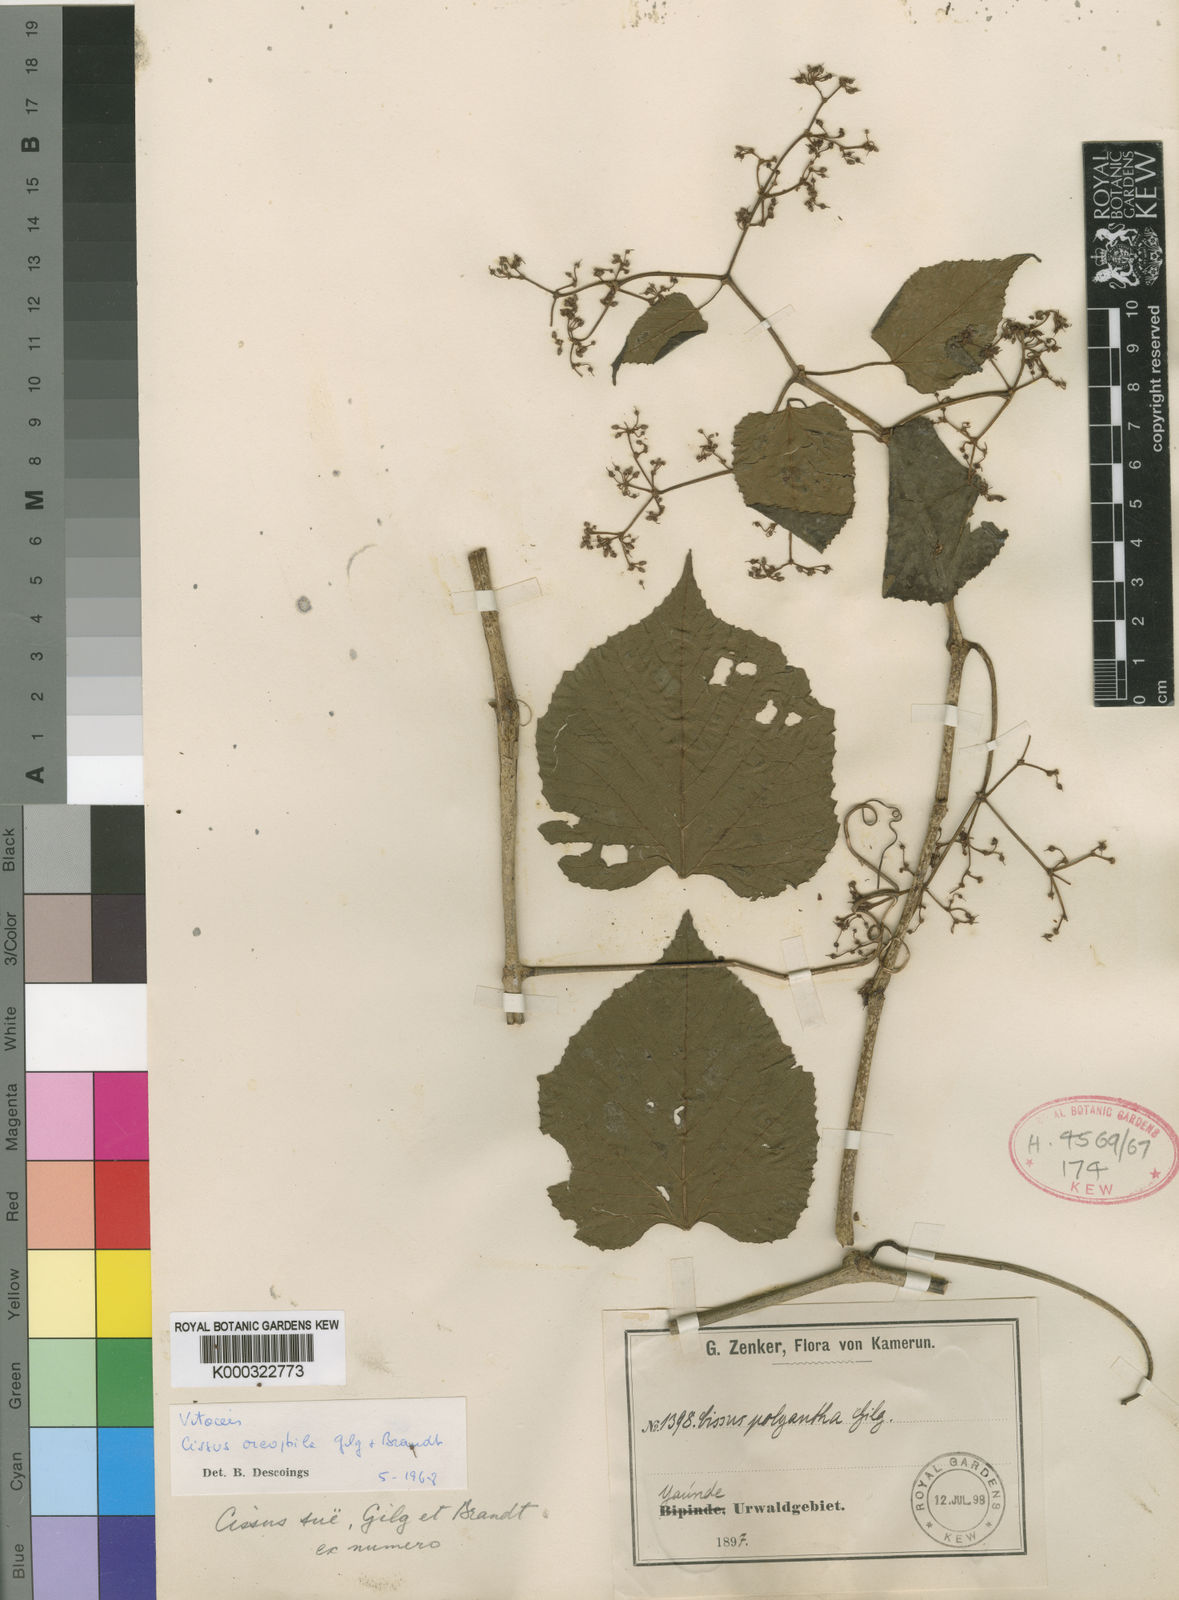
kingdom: Plantae
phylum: Tracheophyta
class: Magnoliopsida
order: Vitales
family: Vitaceae
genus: Cissus
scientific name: Cissus oreophila
